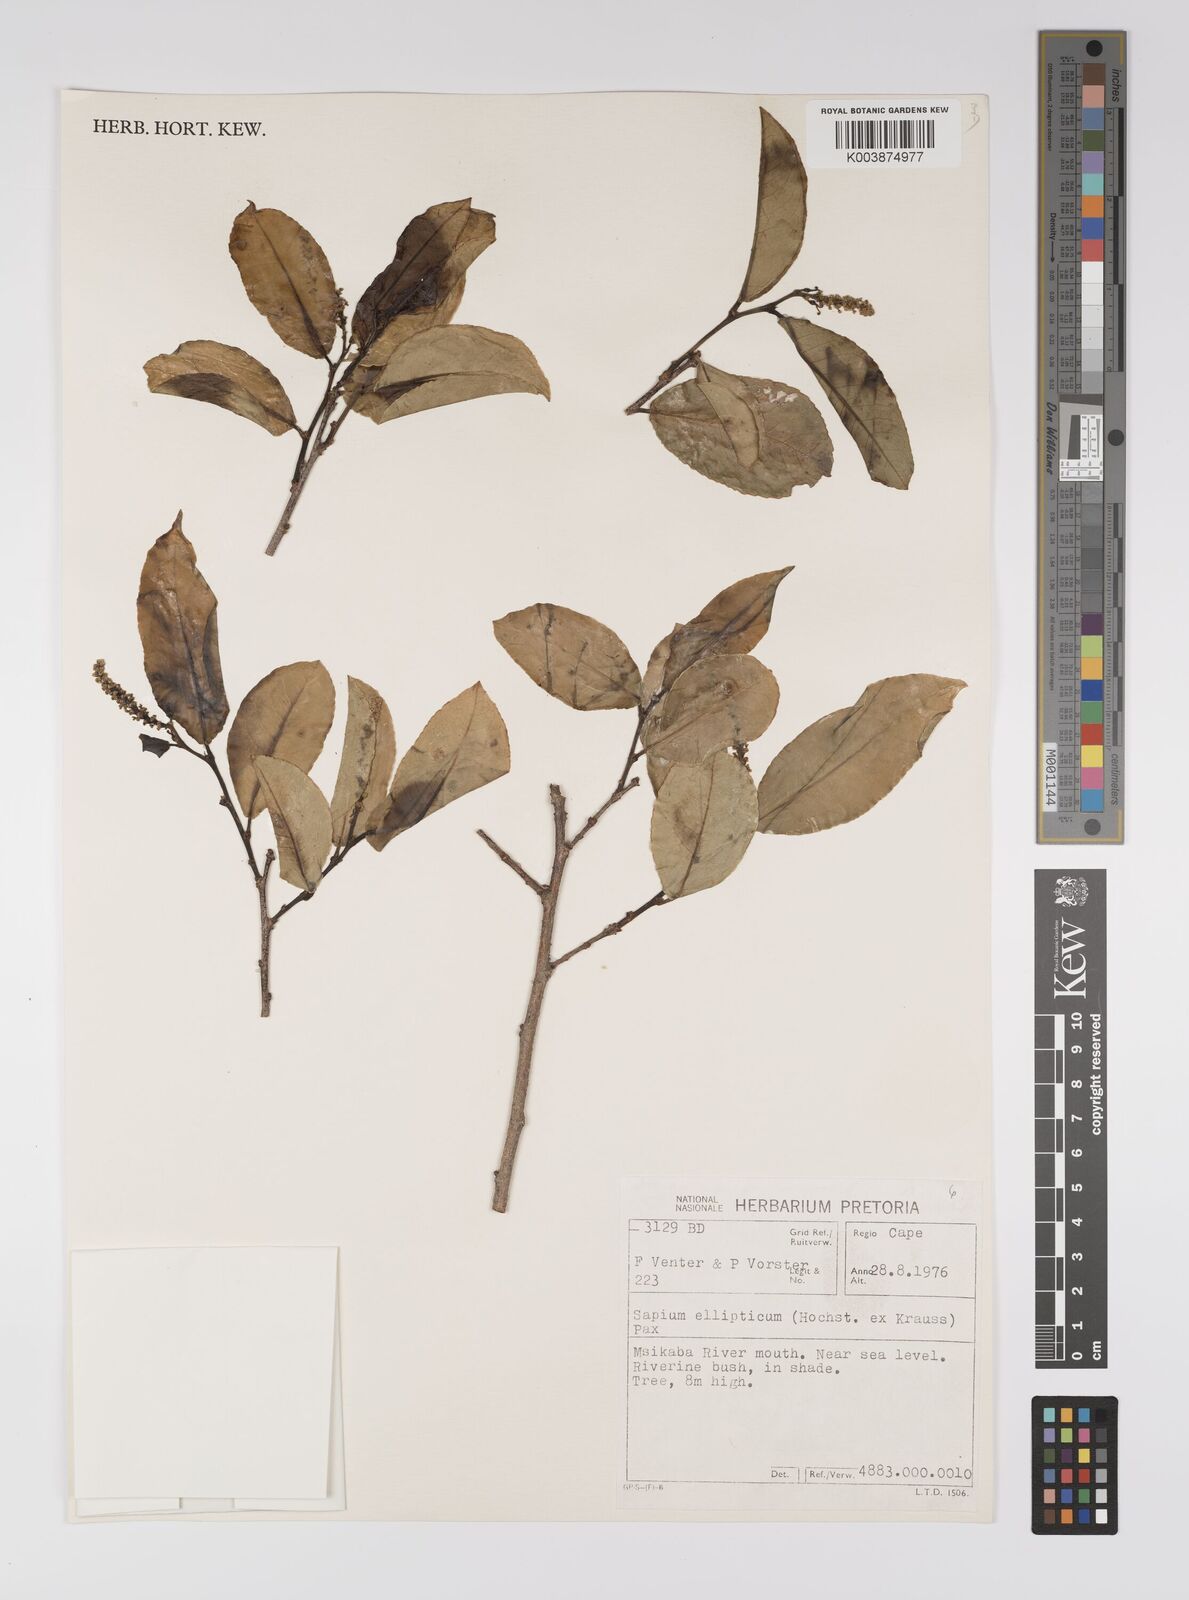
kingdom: Plantae
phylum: Tracheophyta
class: Magnoliopsida
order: Malpighiales
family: Euphorbiaceae
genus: Shirakiopsis
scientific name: Shirakiopsis elliptica
